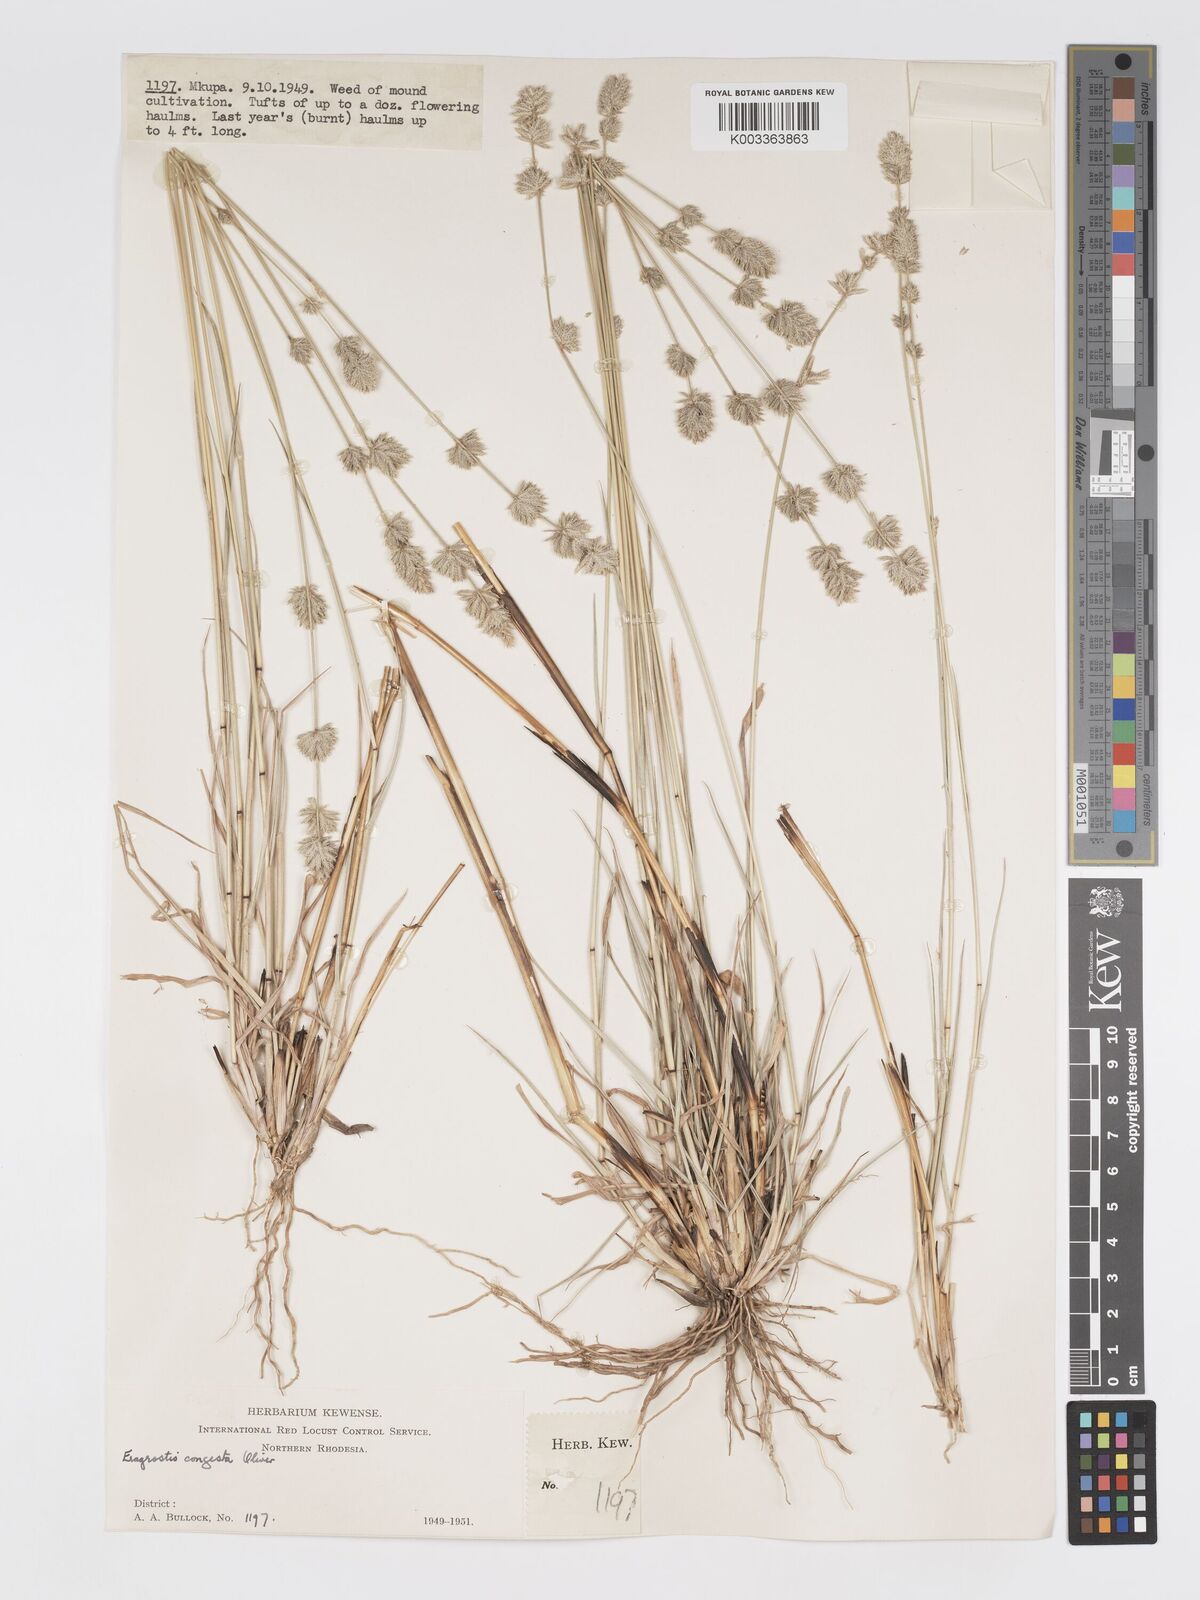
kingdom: Plantae
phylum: Tracheophyta
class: Liliopsida
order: Poales
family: Poaceae
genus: Eragrostis
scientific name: Eragrostis congesta
